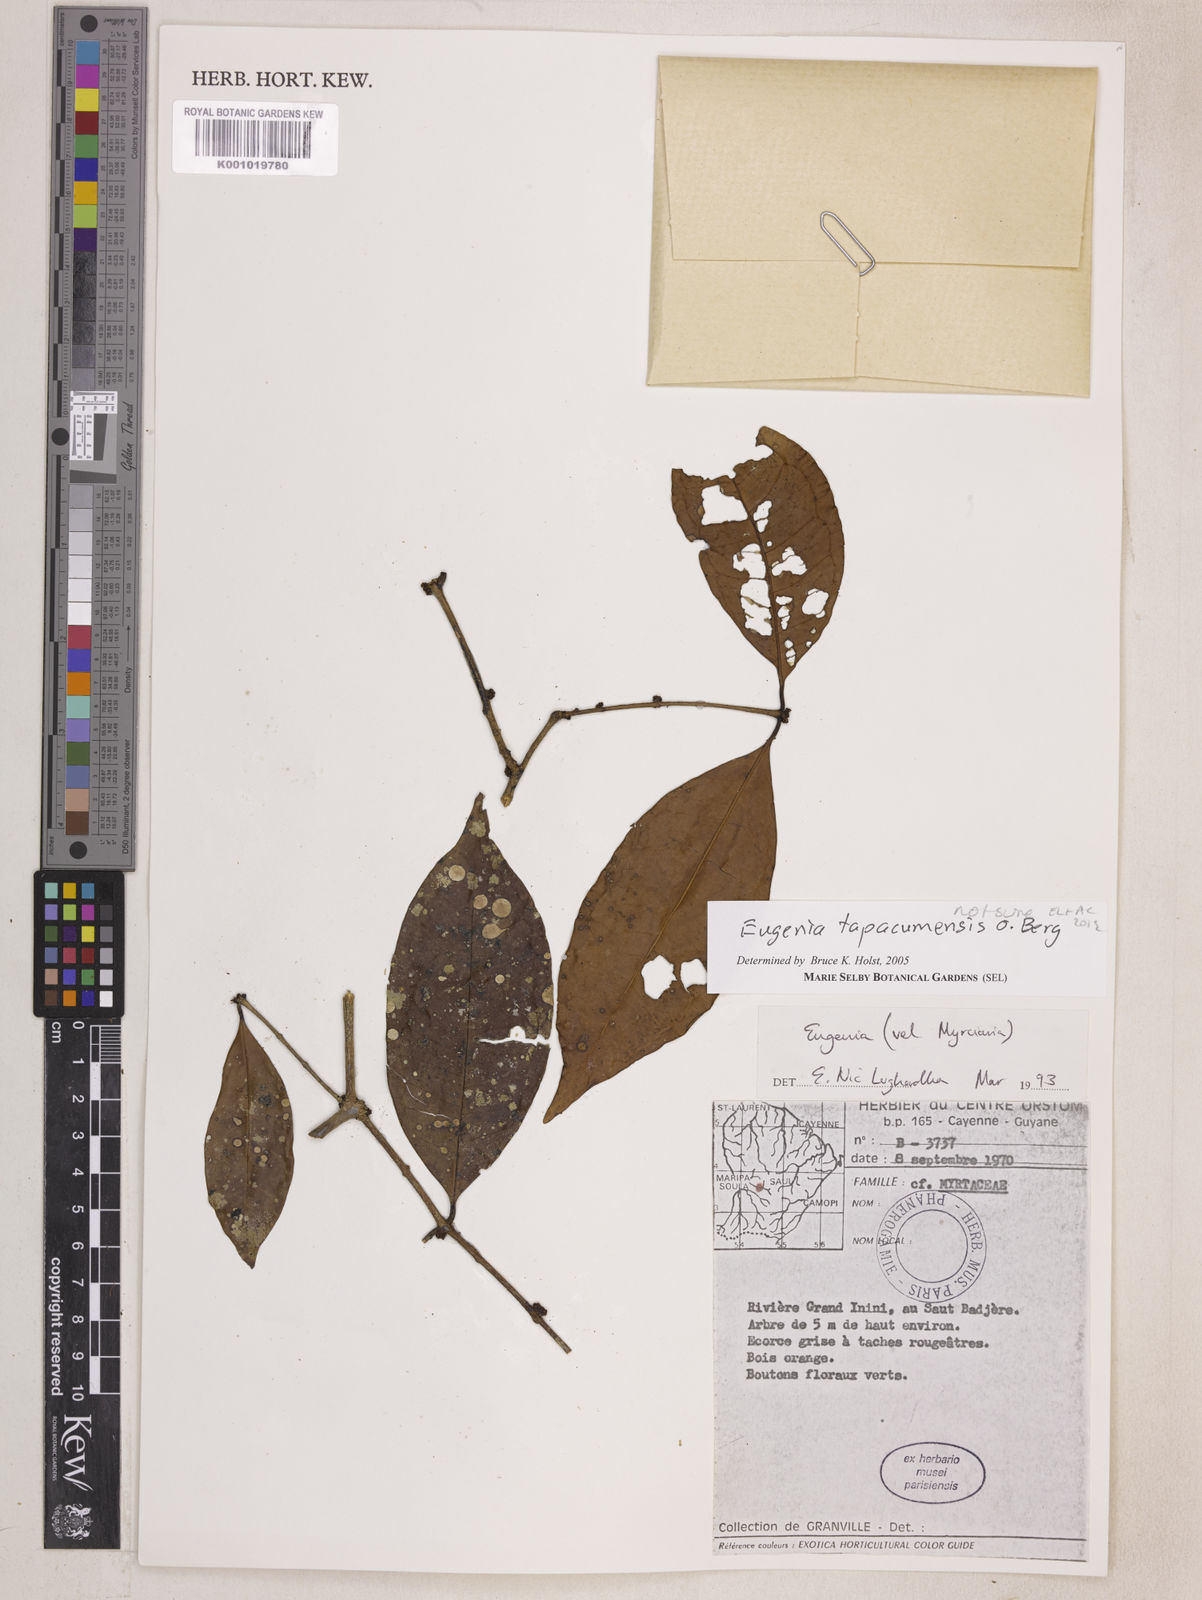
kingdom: Plantae
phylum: Tracheophyta
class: Magnoliopsida
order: Myrtales
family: Myrtaceae
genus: Eugenia
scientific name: Eugenia stictopetala
